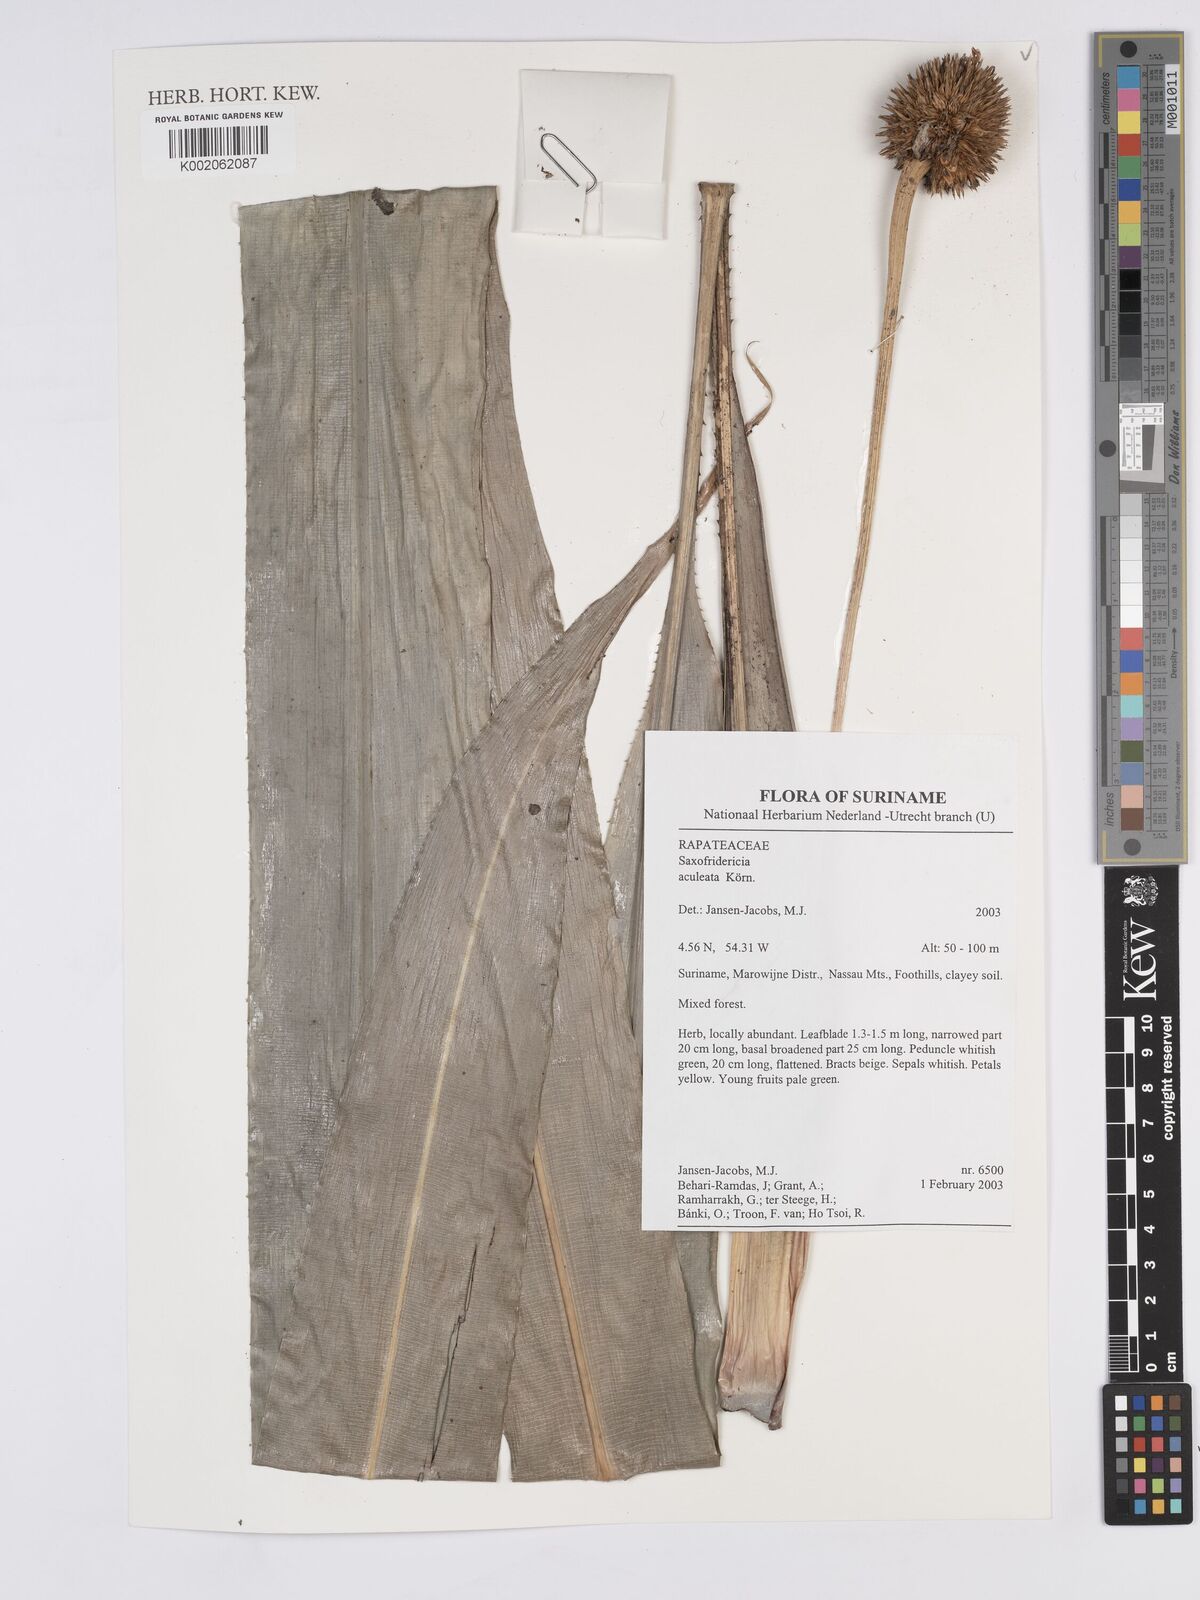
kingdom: Plantae
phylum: Tracheophyta
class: Liliopsida
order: Poales
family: Rapateaceae
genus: Saxofridericia
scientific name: Saxofridericia aculeata
